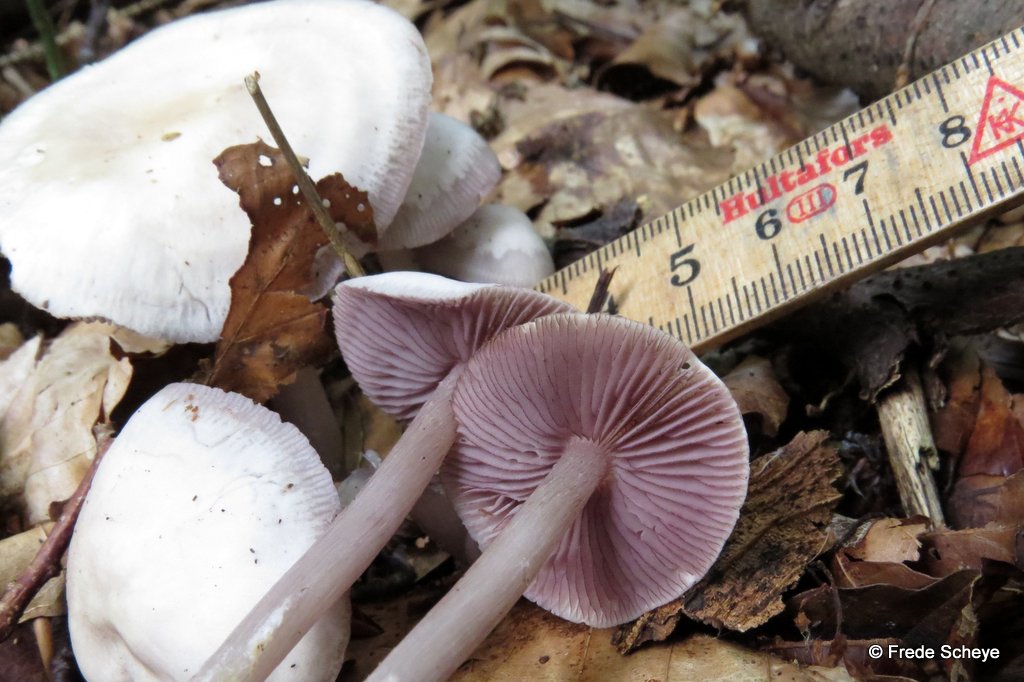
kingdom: Fungi
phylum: Basidiomycota
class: Agaricomycetes
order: Agaricales
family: Mycenaceae
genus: Mycena
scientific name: Mycena pelianthina
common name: mørkbladet huesvamp
